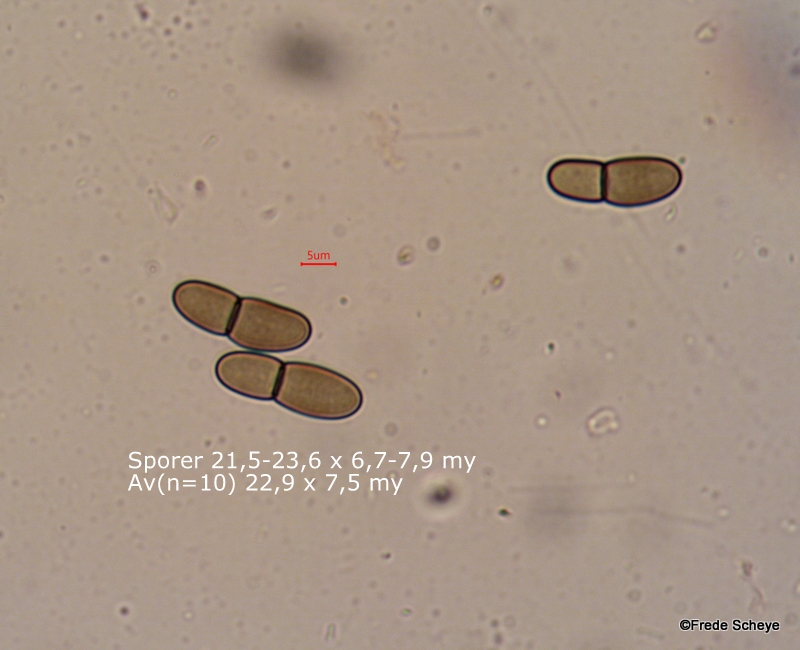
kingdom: Fungi
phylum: Ascomycota
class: Dothideomycetes
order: Dothideales
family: Dothideaceae
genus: Dothidea
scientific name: Dothidea sambuci
